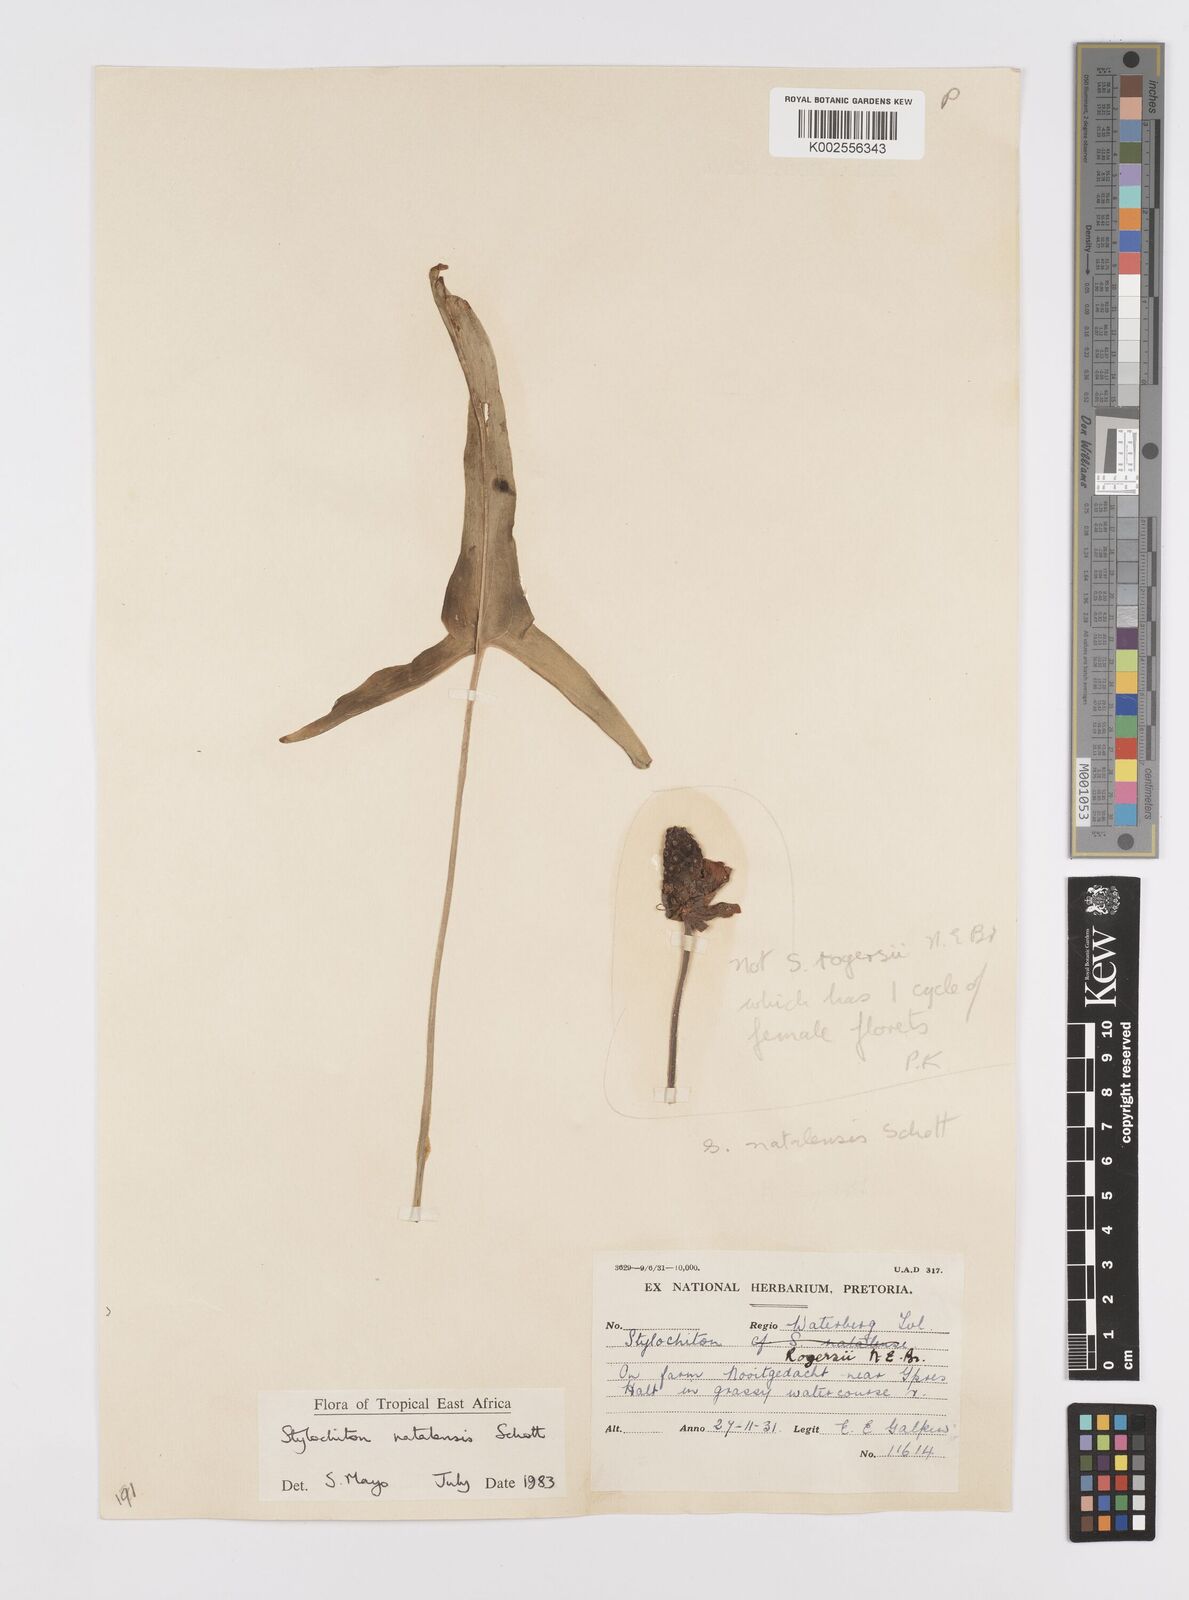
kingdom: Plantae
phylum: Tracheophyta
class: Liliopsida
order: Alismatales
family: Araceae
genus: Stylochaeton
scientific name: Stylochaeton natalense
